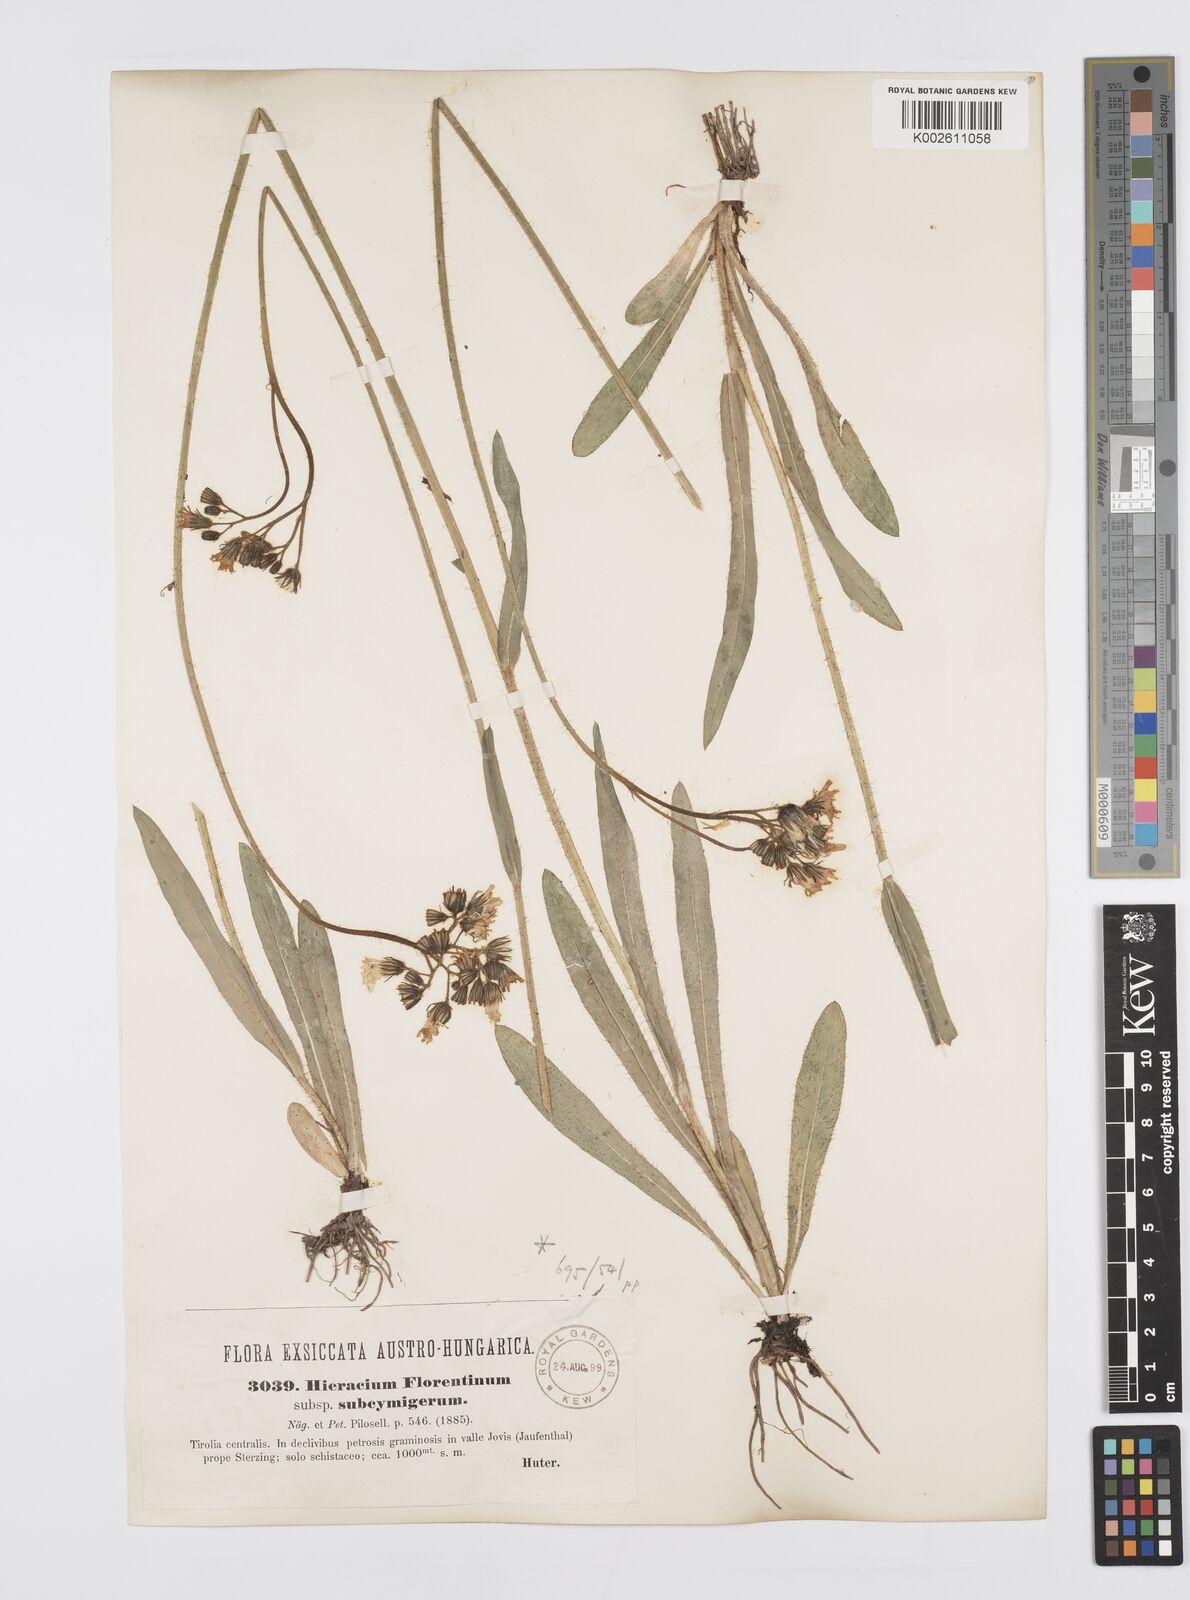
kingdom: Plantae
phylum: Tracheophyta
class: Magnoliopsida
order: Asterales
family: Asteraceae
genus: Pilosella
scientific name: Pilosella piloselloides
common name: Glaucous king-devil
